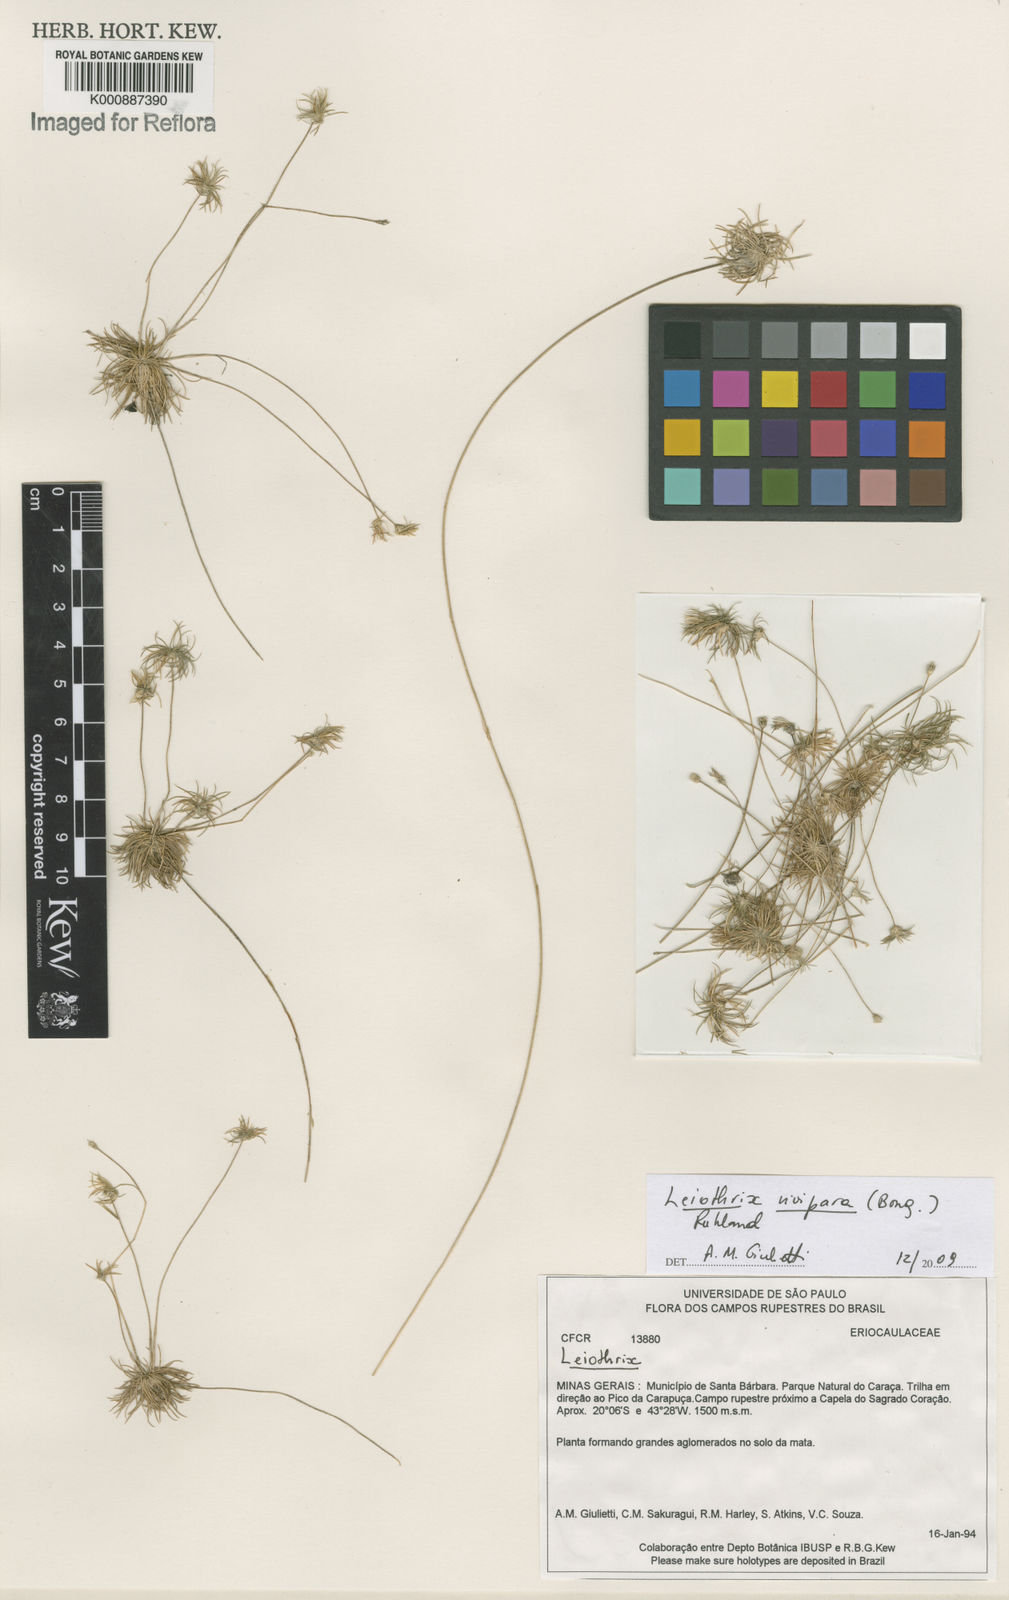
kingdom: Plantae
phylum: Tracheophyta
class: Liliopsida
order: Poales
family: Eriocaulaceae
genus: Leiothrix
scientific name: Leiothrix
